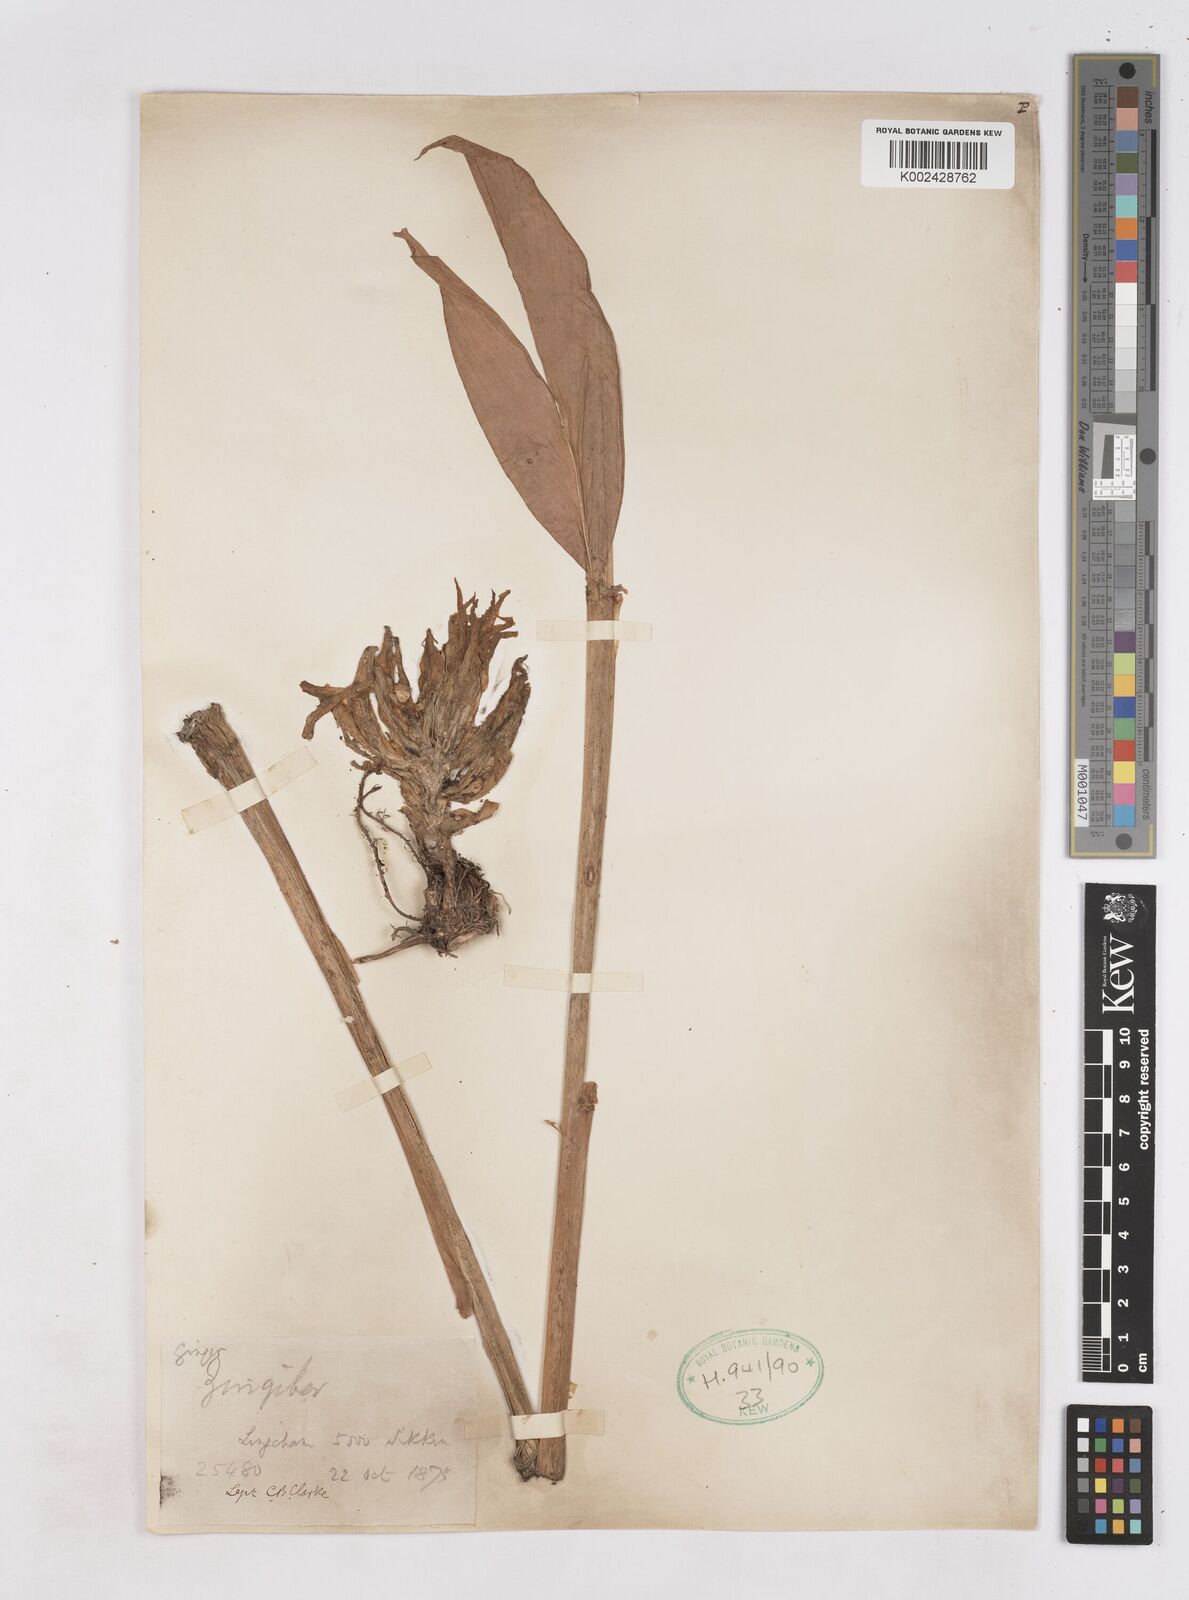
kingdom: Plantae
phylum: Tracheophyta
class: Liliopsida
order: Zingiberales
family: Zingiberaceae
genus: Zingiber
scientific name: Zingiber
